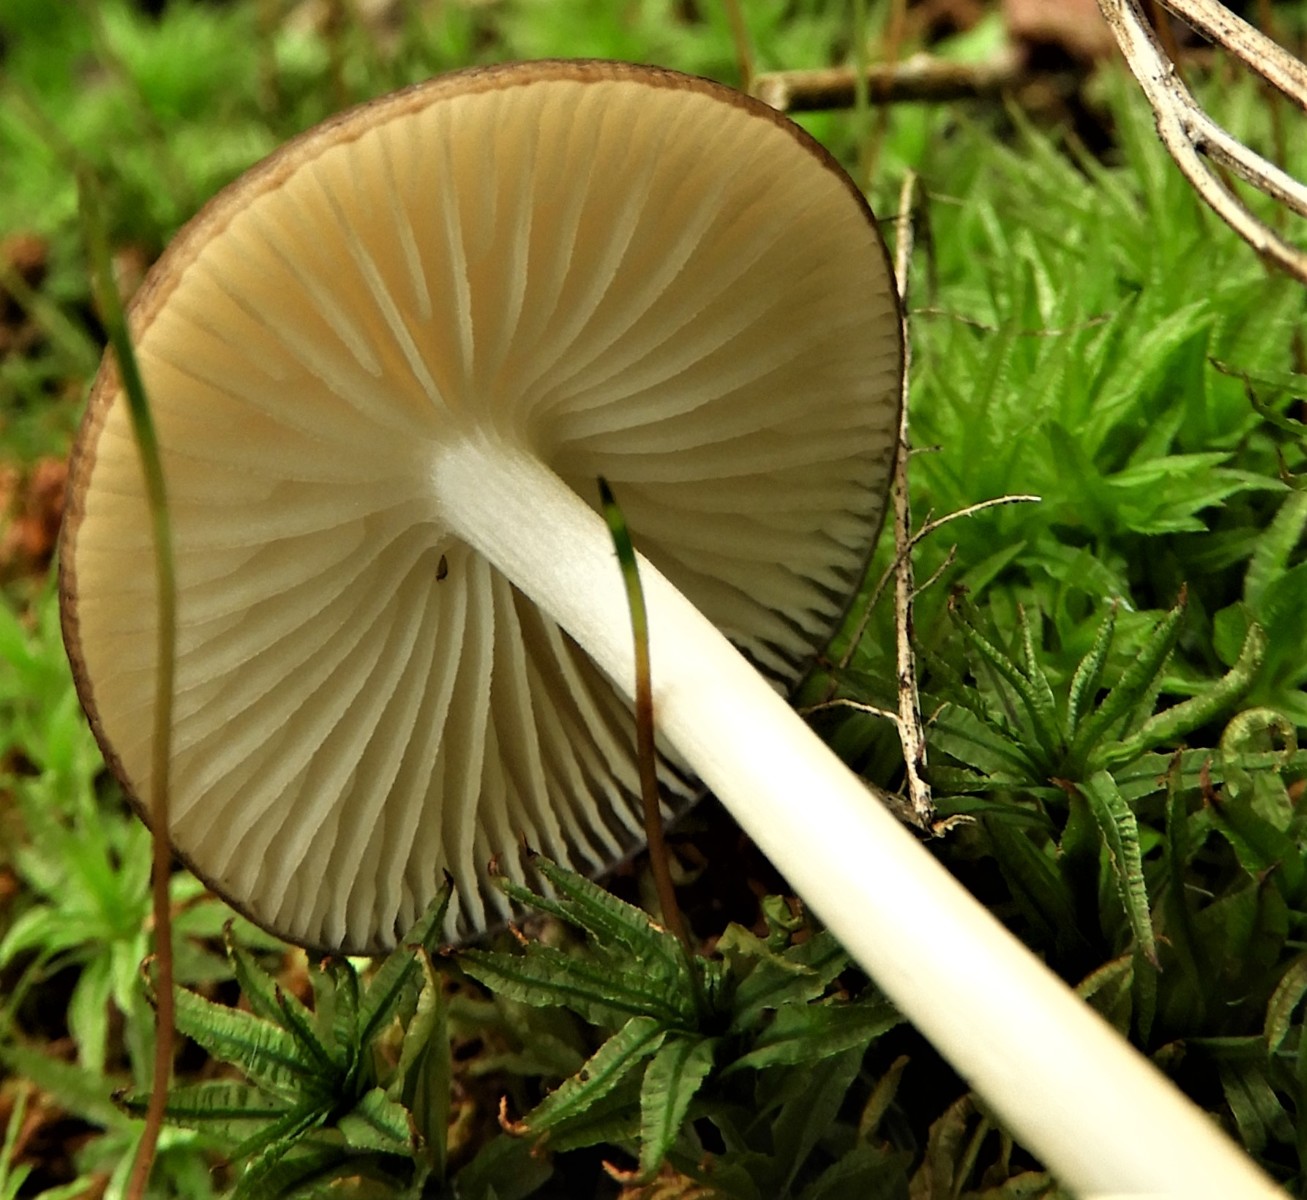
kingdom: Fungi
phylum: Basidiomycota
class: Agaricomycetes
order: Agaricales
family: Physalacriaceae
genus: Hymenopellis
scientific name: Hymenopellis radicata
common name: almindelig pælerodshat
